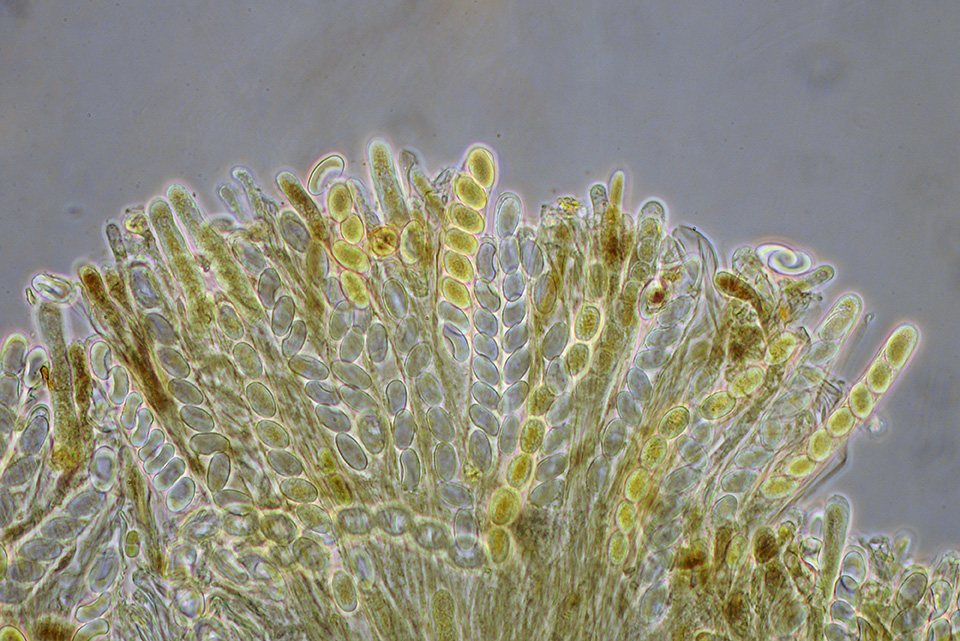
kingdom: Fungi
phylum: Ascomycota
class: Pezizomycetes
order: Pezizales
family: Pyronemataceae
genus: Pyronema
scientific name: Pyronema omphalodes
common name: glat askebæger
